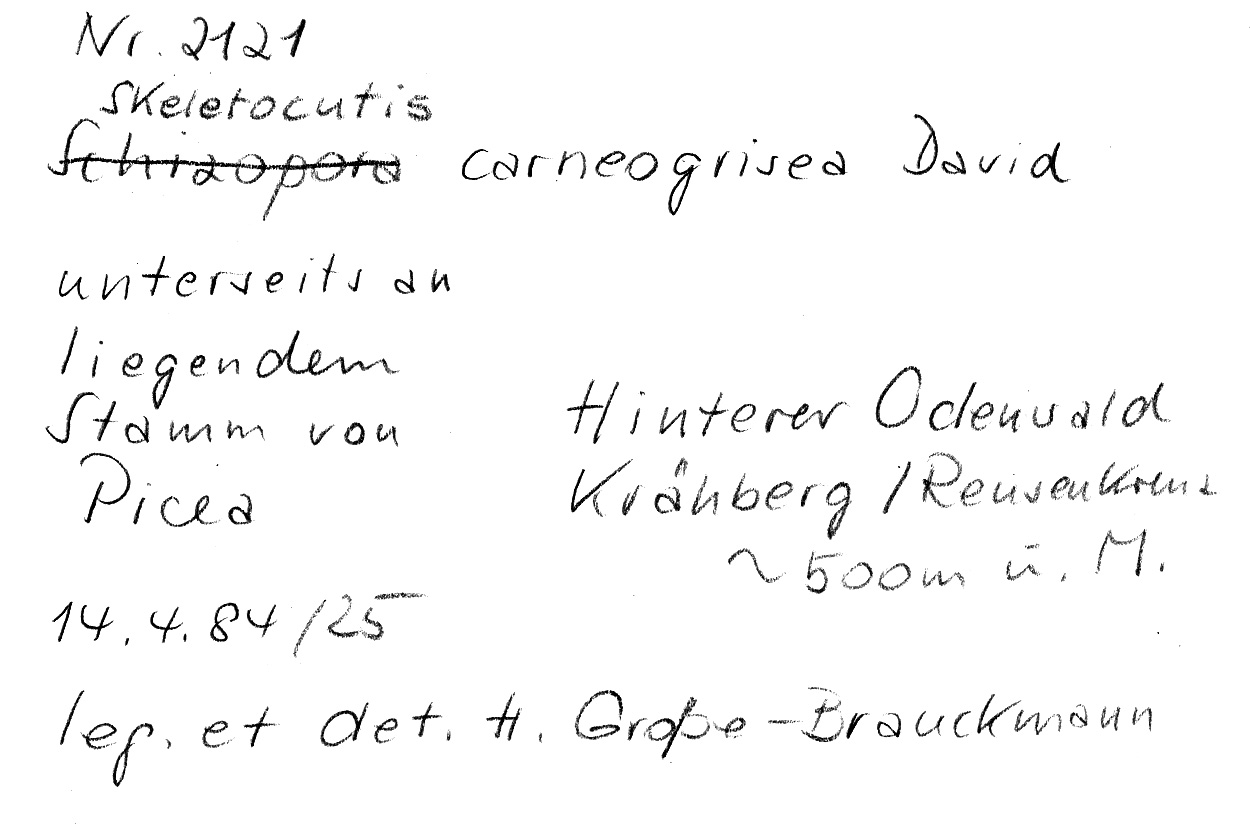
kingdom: Fungi
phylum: Basidiomycota
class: Agaricomycetes
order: Polyporales
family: Incrustoporiaceae
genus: Skeletocutis
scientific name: Skeletocutis carneogrisea
